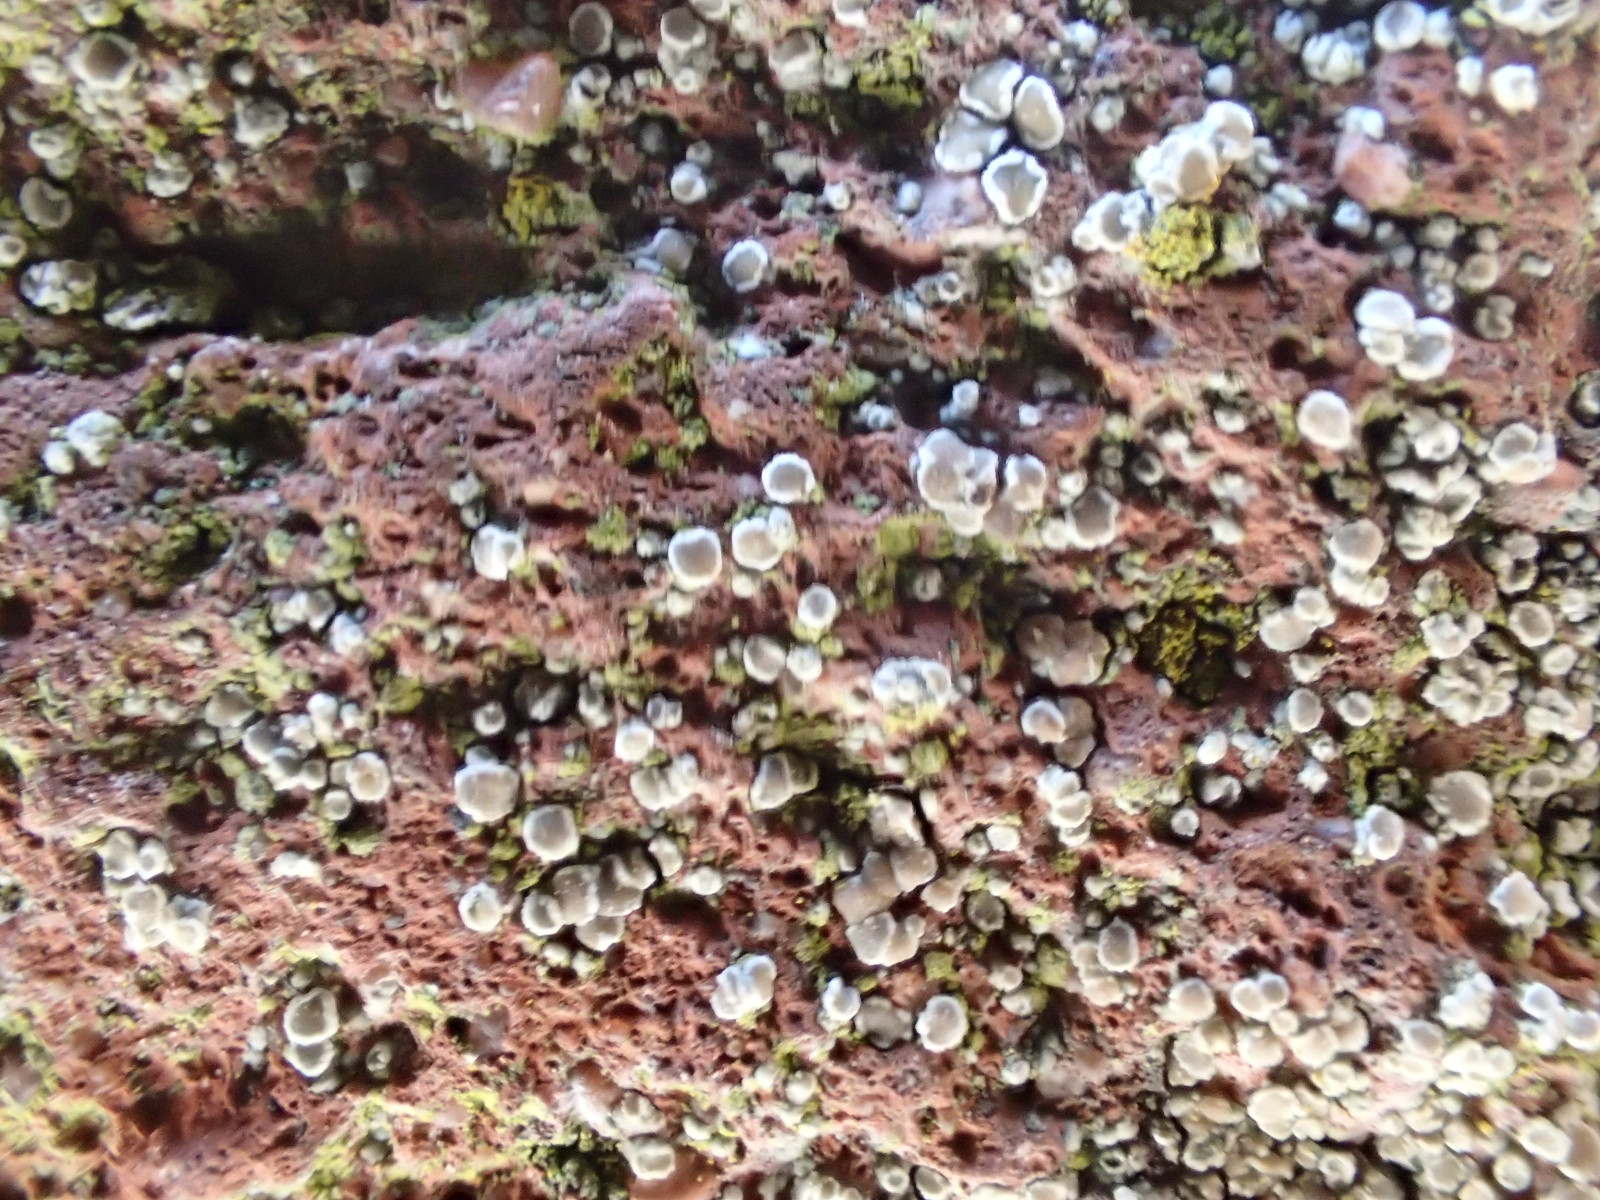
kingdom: Fungi
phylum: Ascomycota
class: Lecanoromycetes
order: Lecanorales
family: Lecanoraceae
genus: Polyozosia
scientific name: Polyozosia dispersa
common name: spredt kantskivelav
